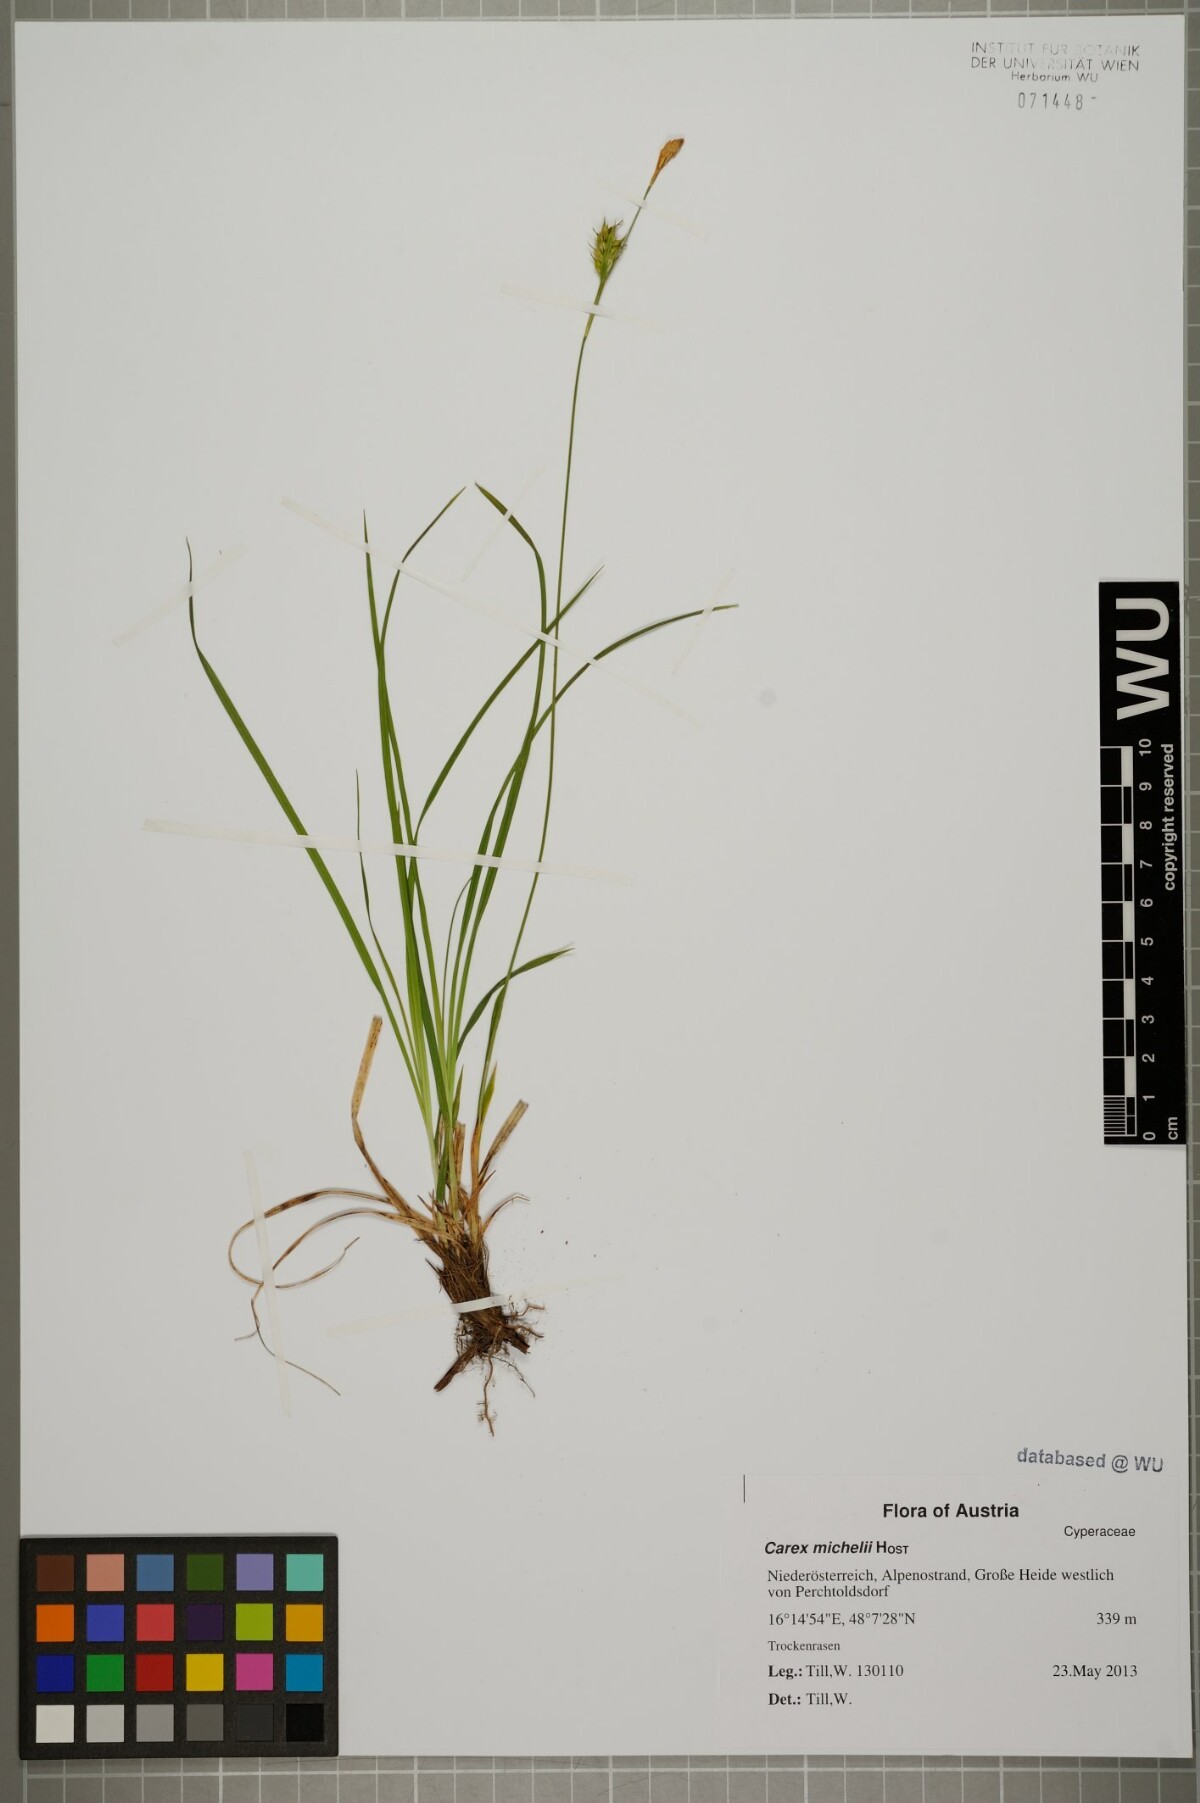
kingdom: Plantae
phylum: Tracheophyta
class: Liliopsida
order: Poales
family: Cyperaceae
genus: Carex
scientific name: Carex michelii
